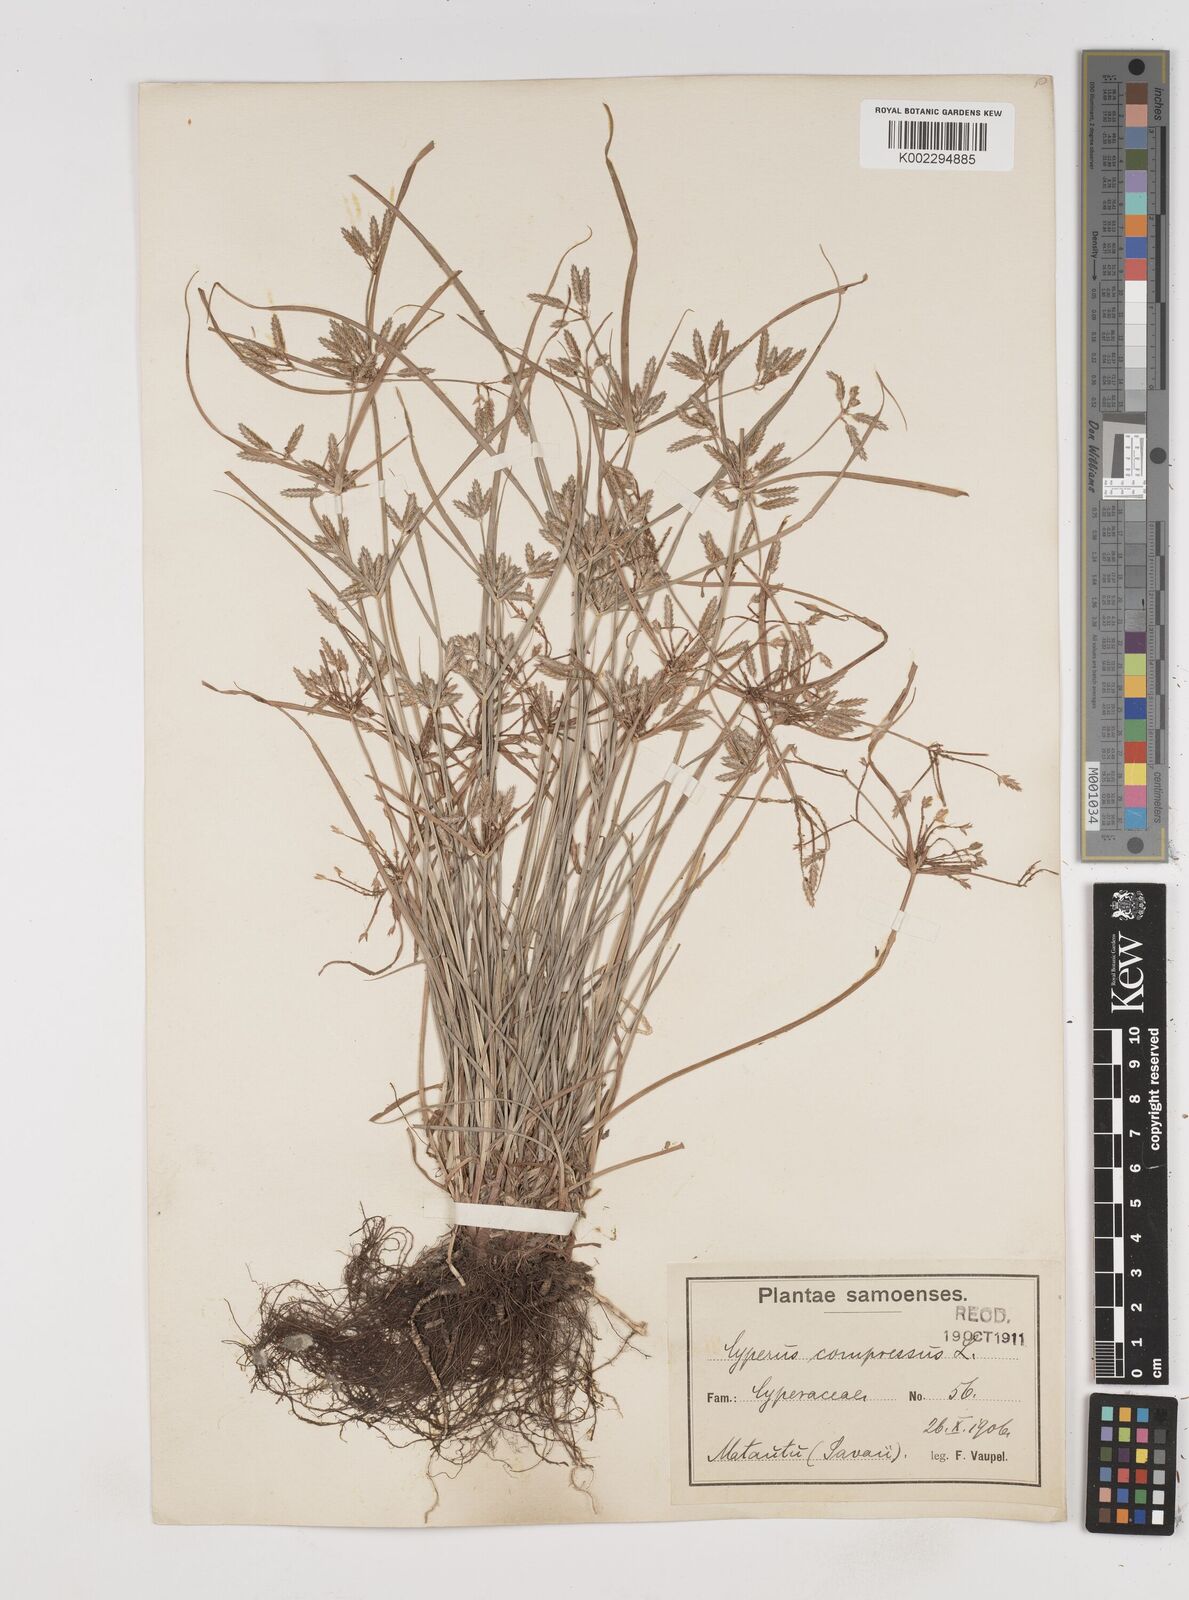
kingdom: Plantae
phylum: Tracheophyta
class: Liliopsida
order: Poales
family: Cyperaceae
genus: Cyperus
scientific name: Cyperus compressus
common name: Poorland flatsedge
